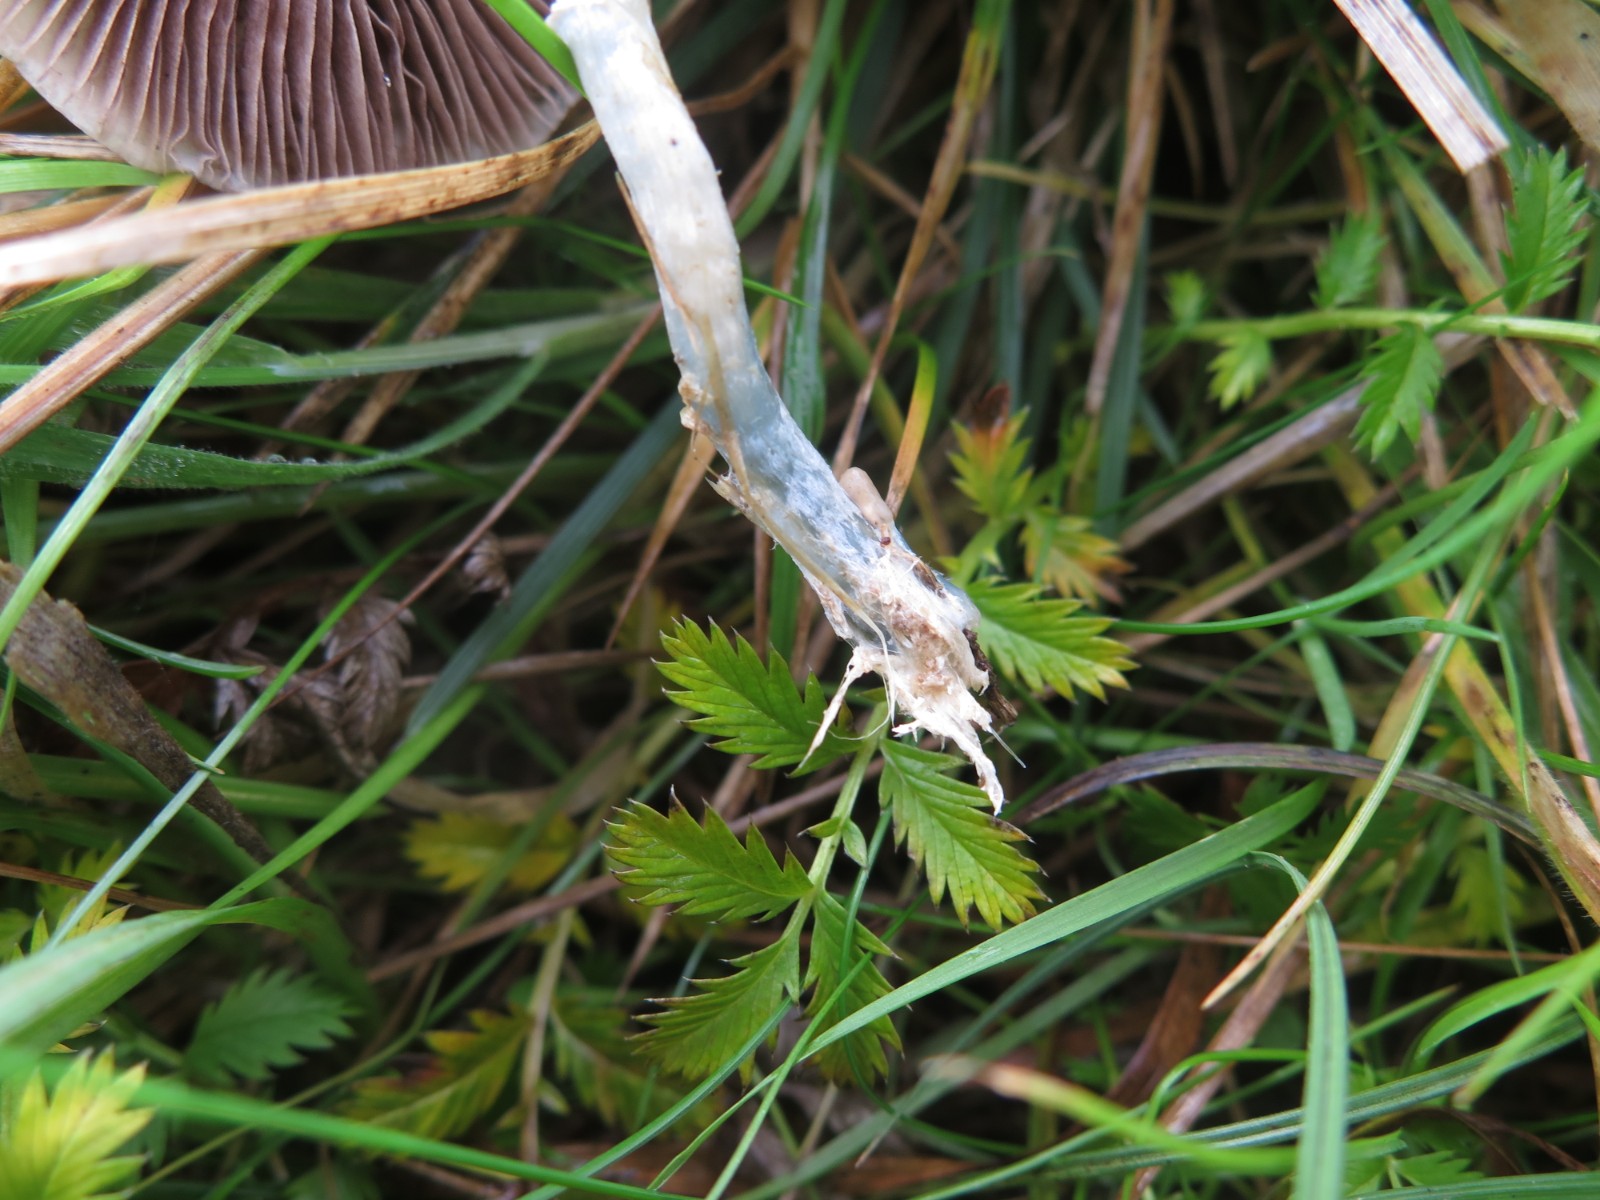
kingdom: Fungi
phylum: Basidiomycota
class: Agaricomycetes
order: Agaricales
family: Strophariaceae
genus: Stropharia
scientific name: Stropharia pseudocyanea
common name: blegblå bredblad
